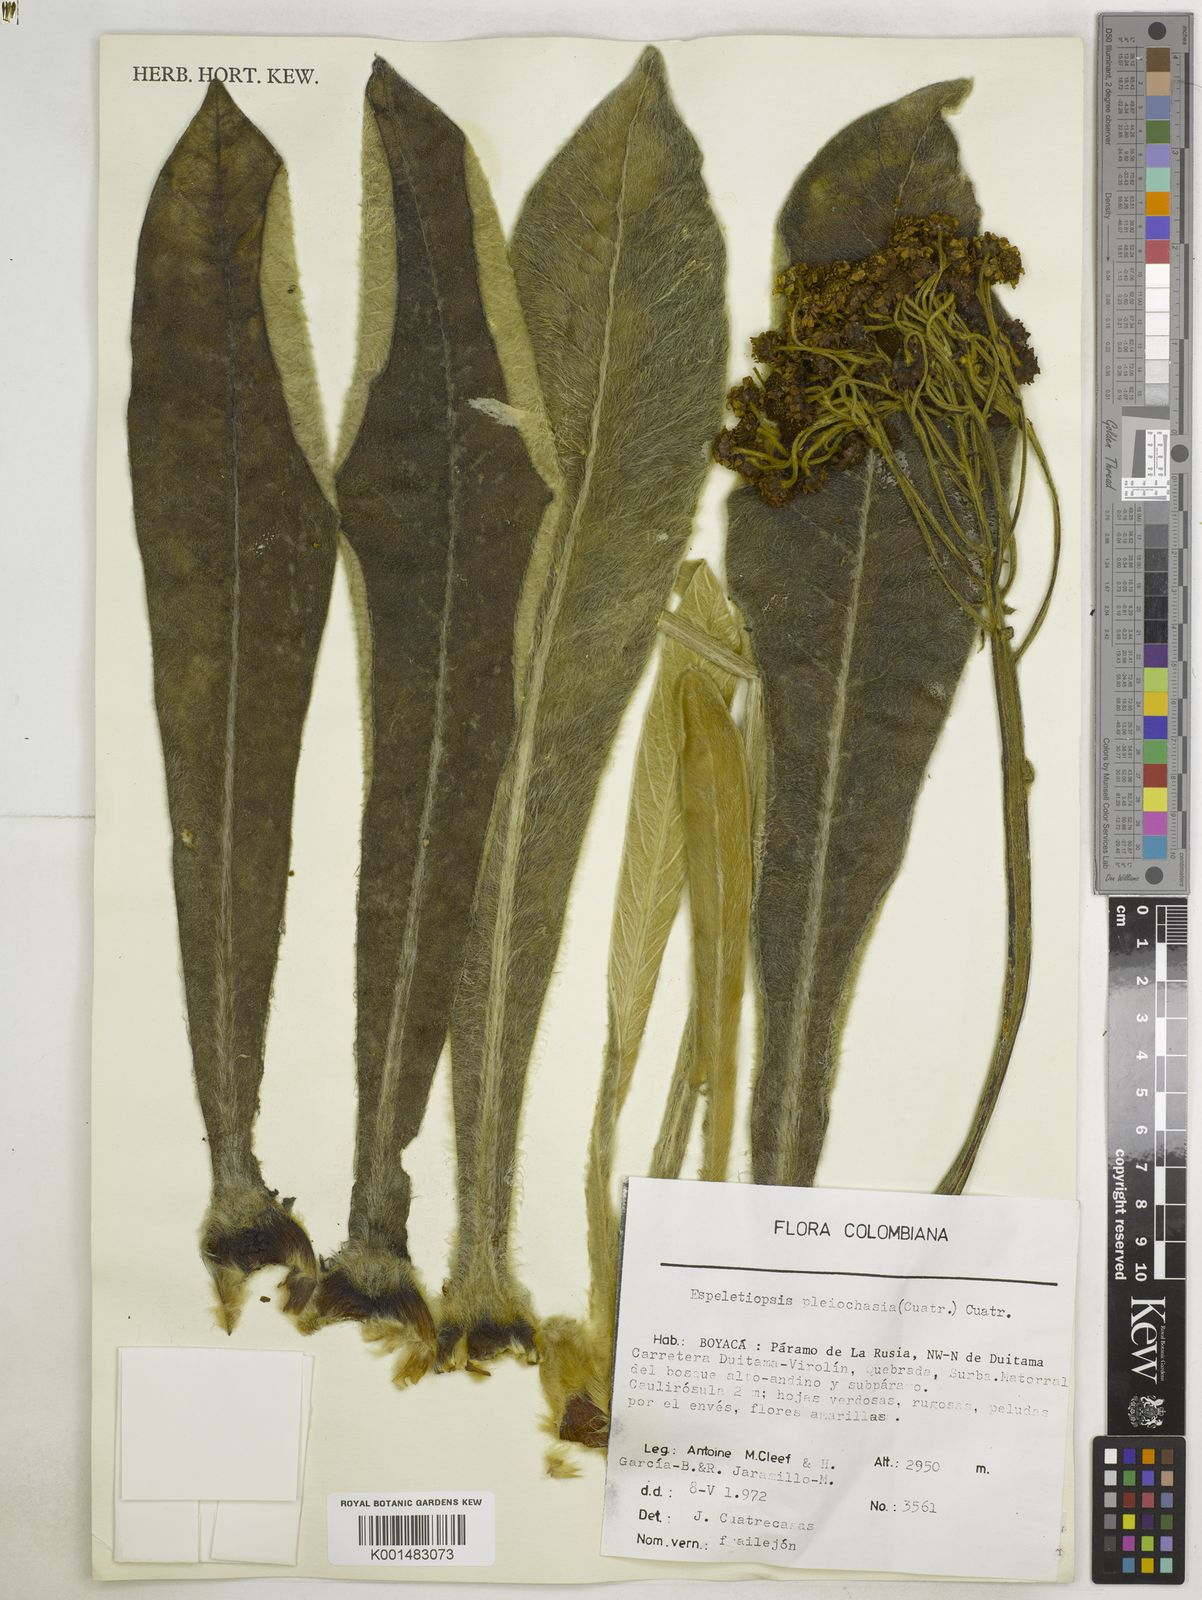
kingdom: Plantae
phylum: Tracheophyta
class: Magnoliopsida
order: Asterales
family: Asteraceae
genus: Espeletia
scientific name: Espeletia pleiochasia
